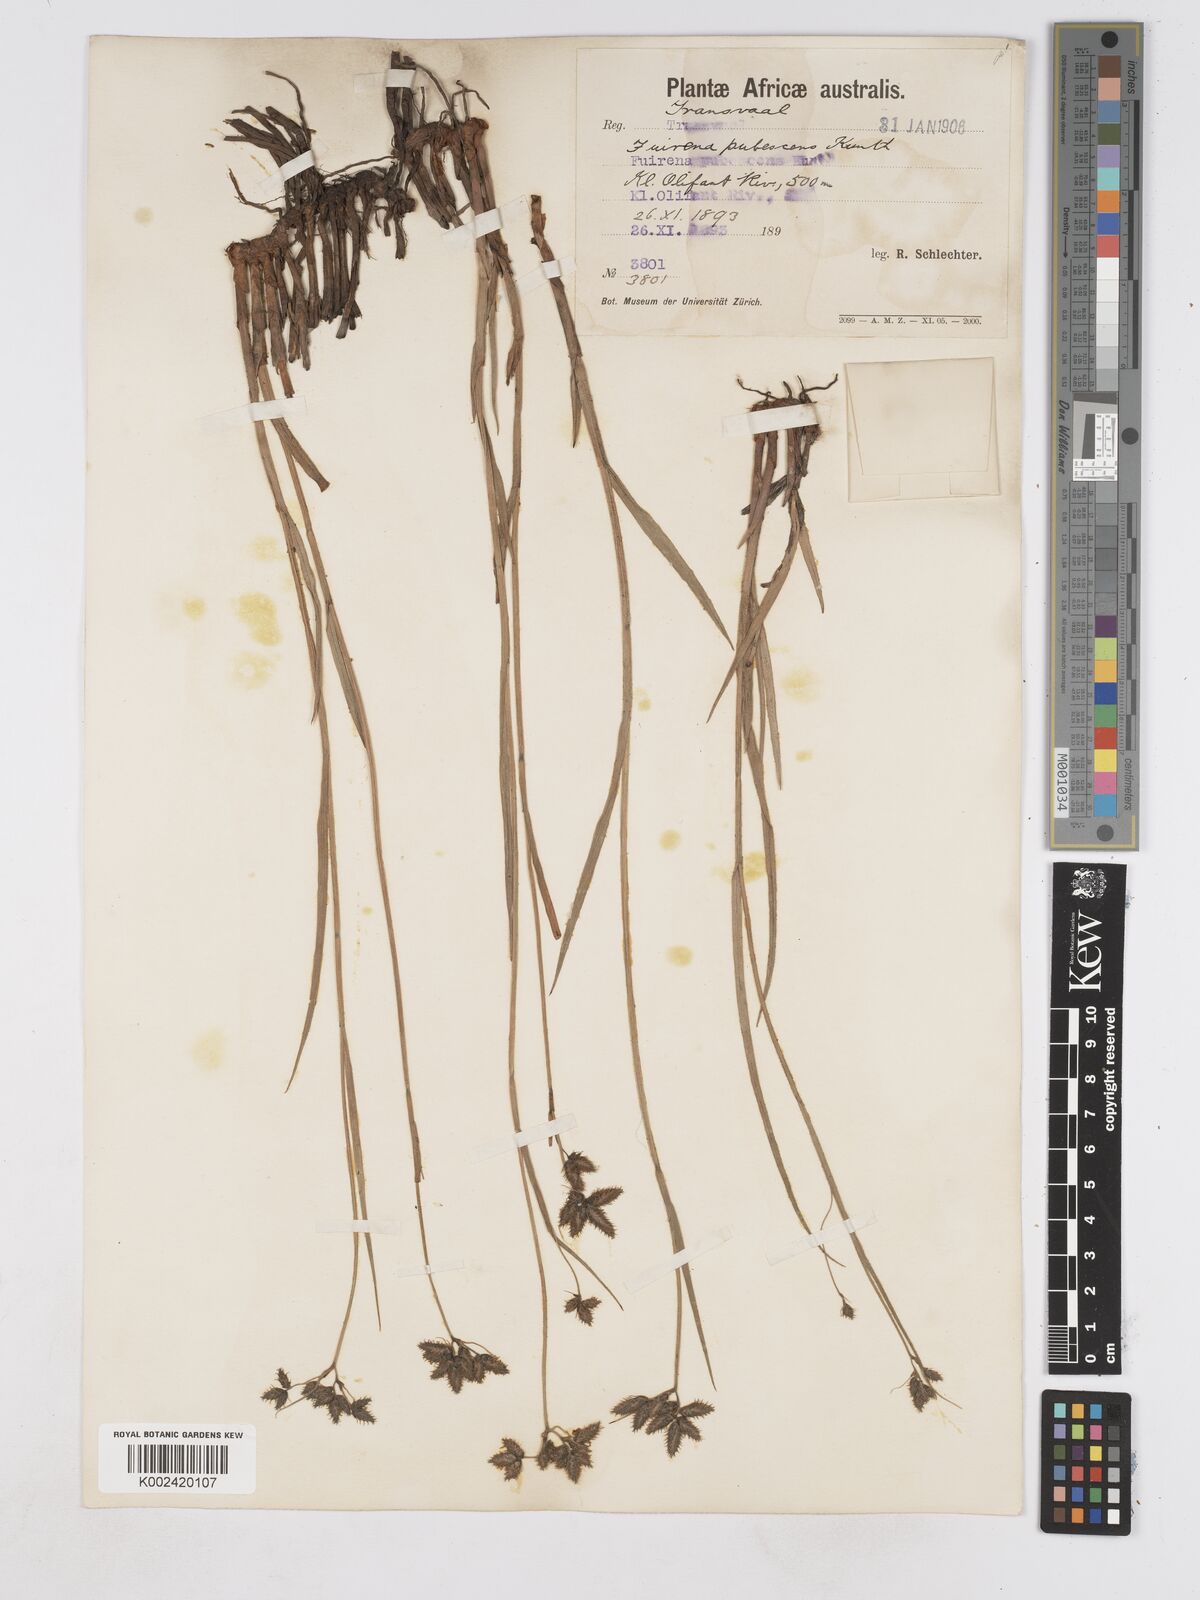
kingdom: Plantae
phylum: Tracheophyta
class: Liliopsida
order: Poales
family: Cyperaceae
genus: Fuirena
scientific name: Fuirena pubescens
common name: Hairy sedge
